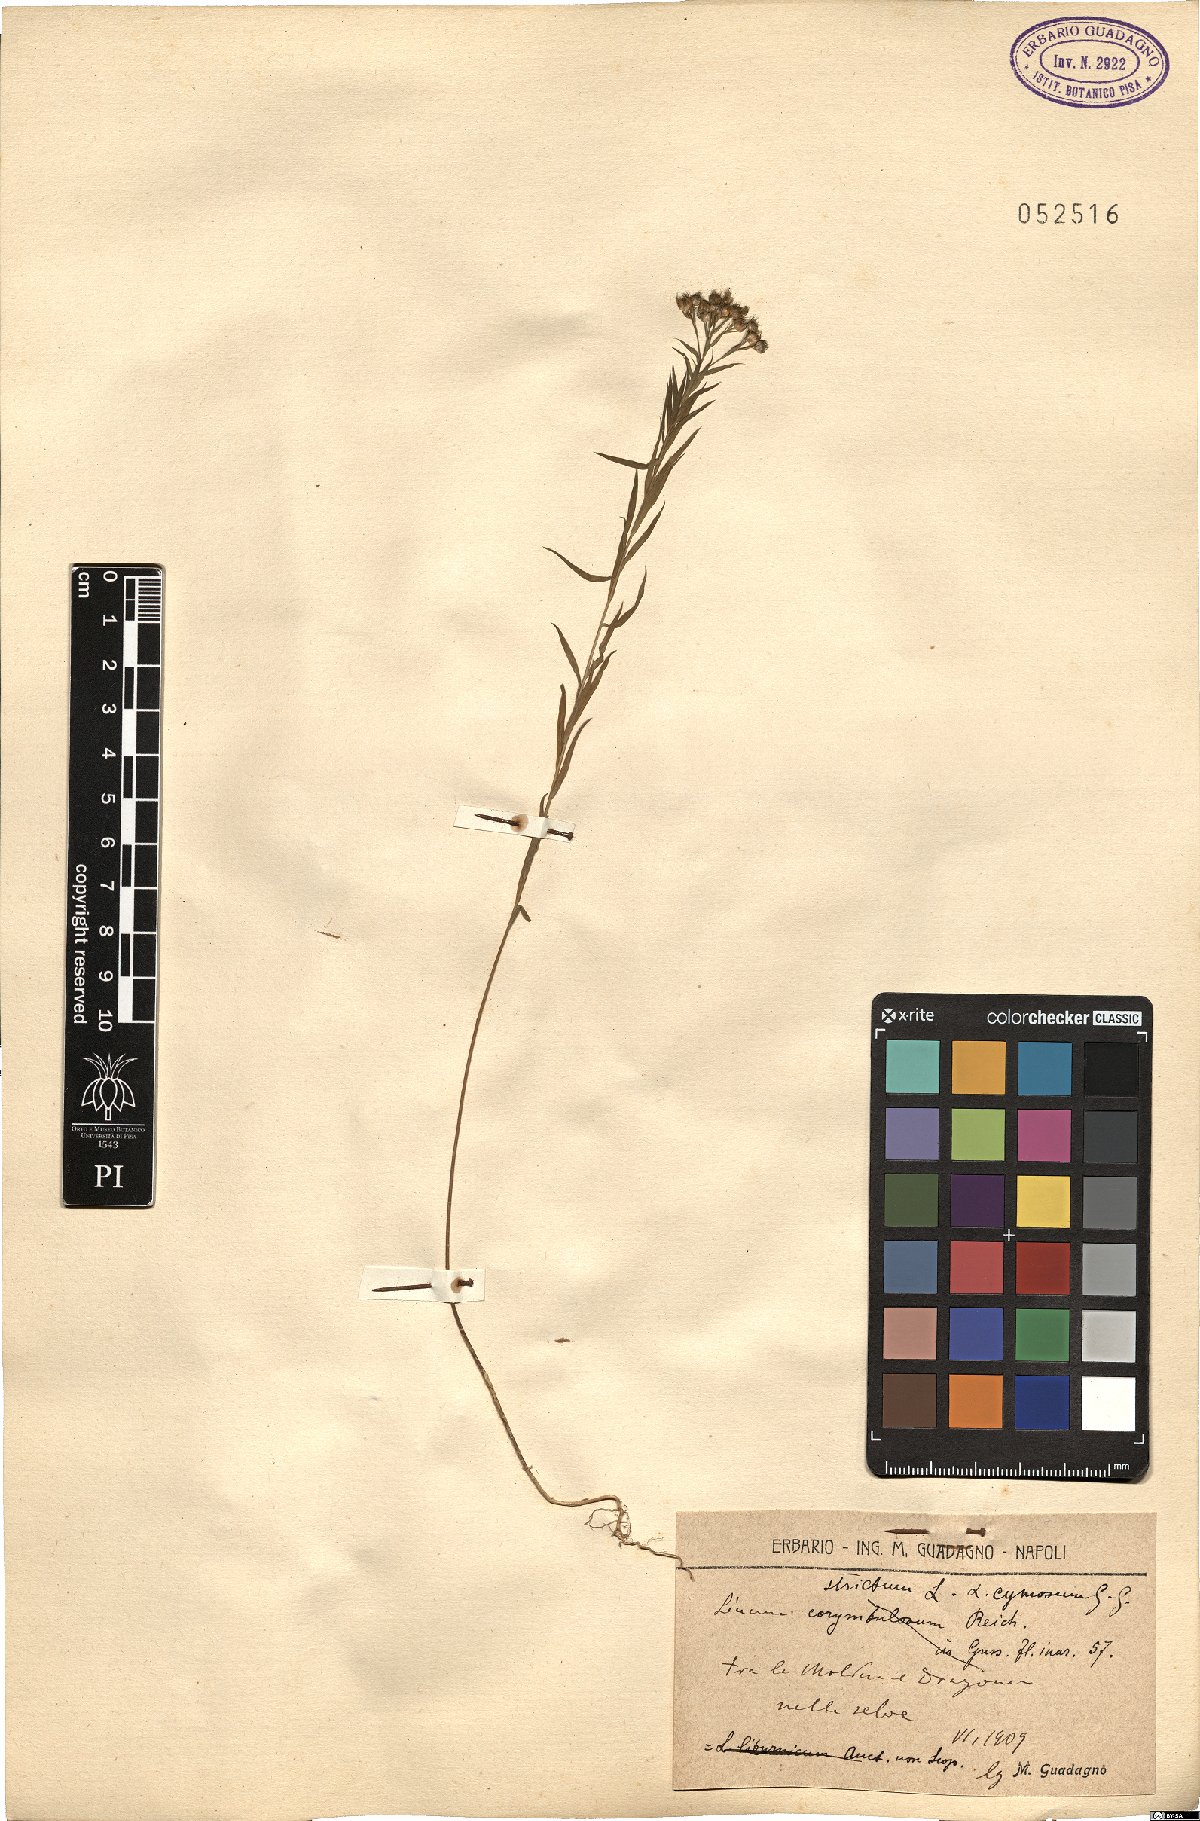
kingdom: Plantae
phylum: Tracheophyta
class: Magnoliopsida
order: Malpighiales
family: Linaceae
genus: Linum
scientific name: Linum strictum
